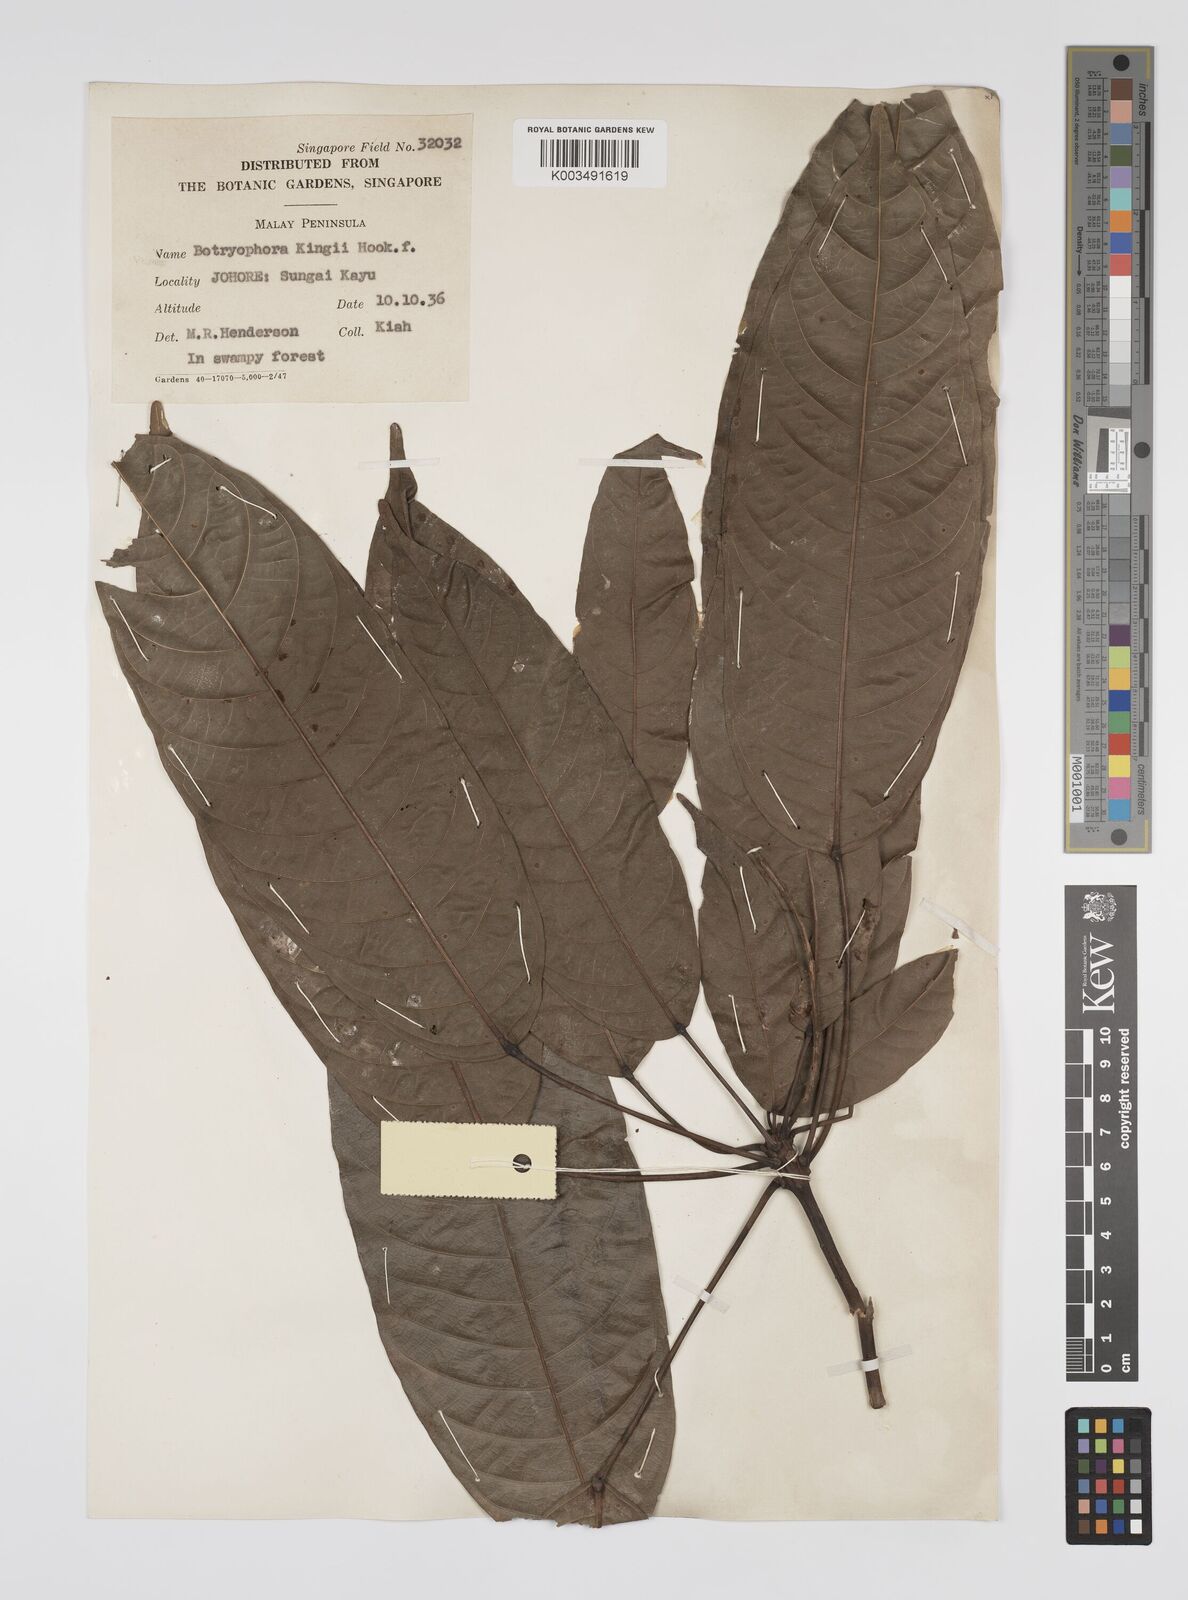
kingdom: Plantae
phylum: Tracheophyta
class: Magnoliopsida
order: Malpighiales
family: Euphorbiaceae
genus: Botryophora
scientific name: Botryophora geniculata
